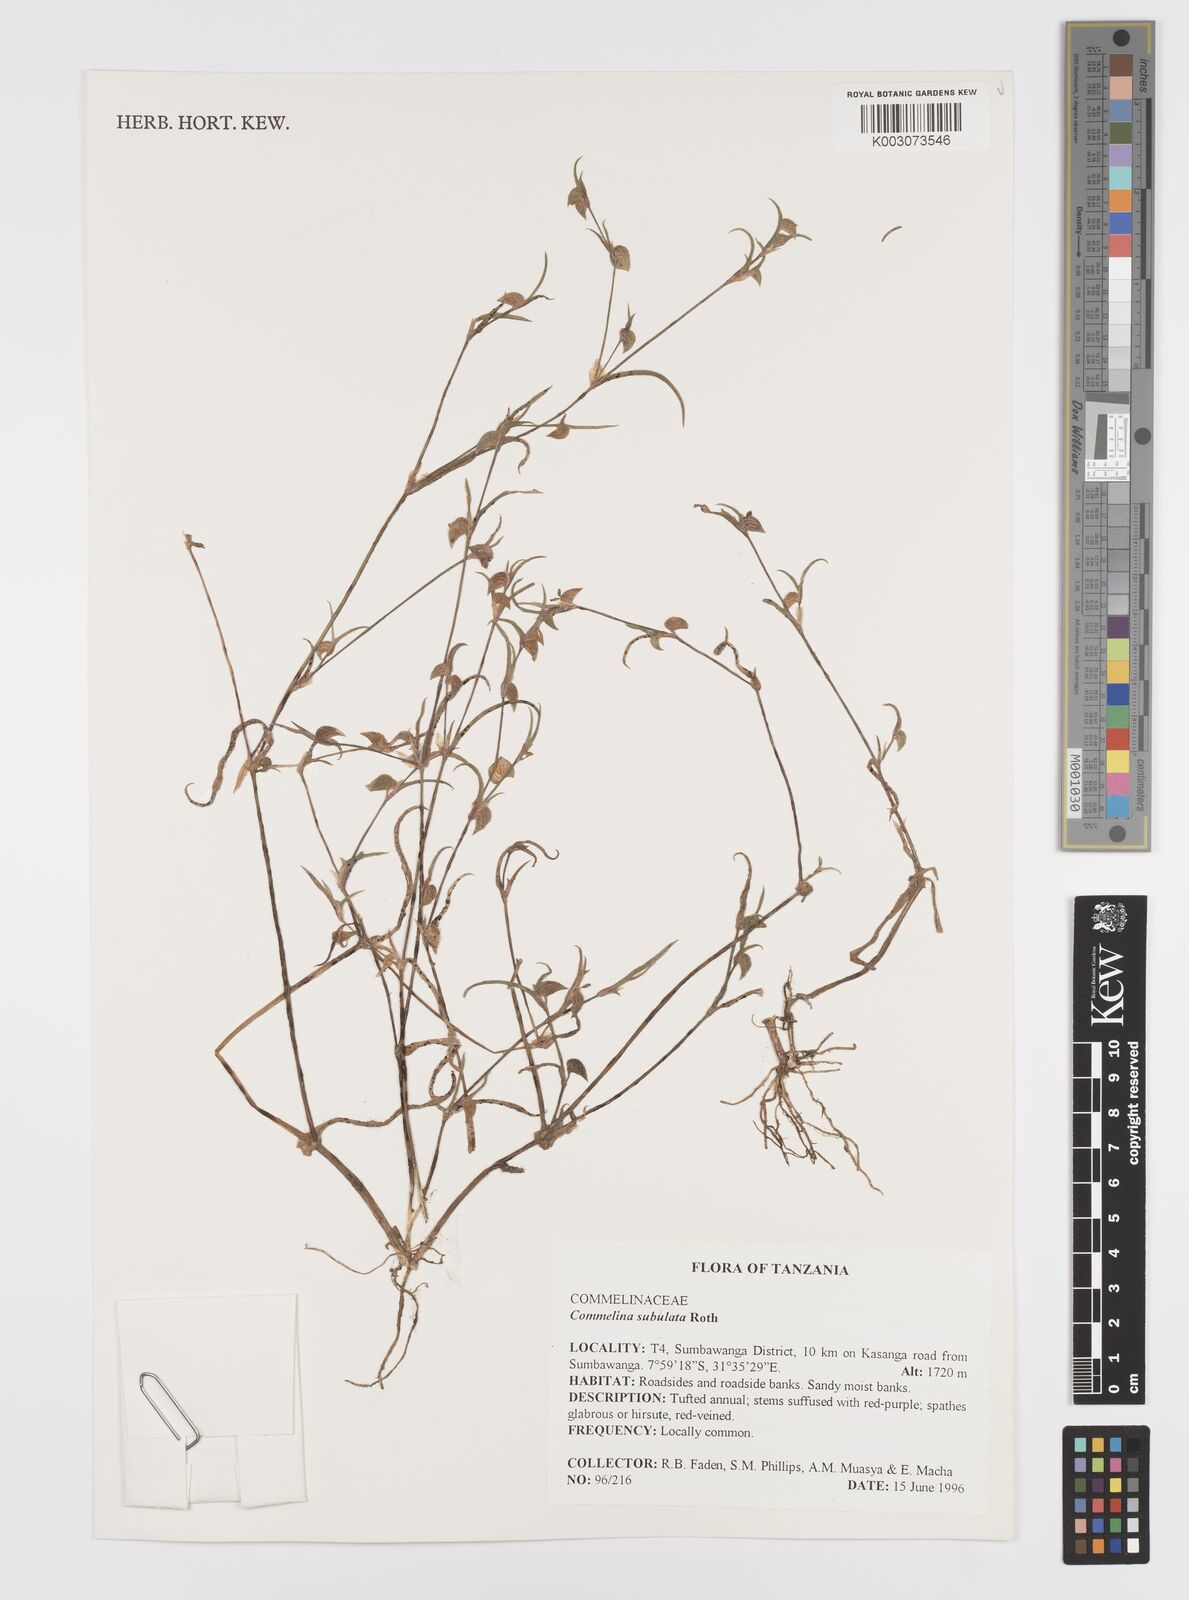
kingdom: Plantae
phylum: Tracheophyta
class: Liliopsida
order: Commelinales
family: Commelinaceae
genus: Commelina
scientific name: Commelina subulata
